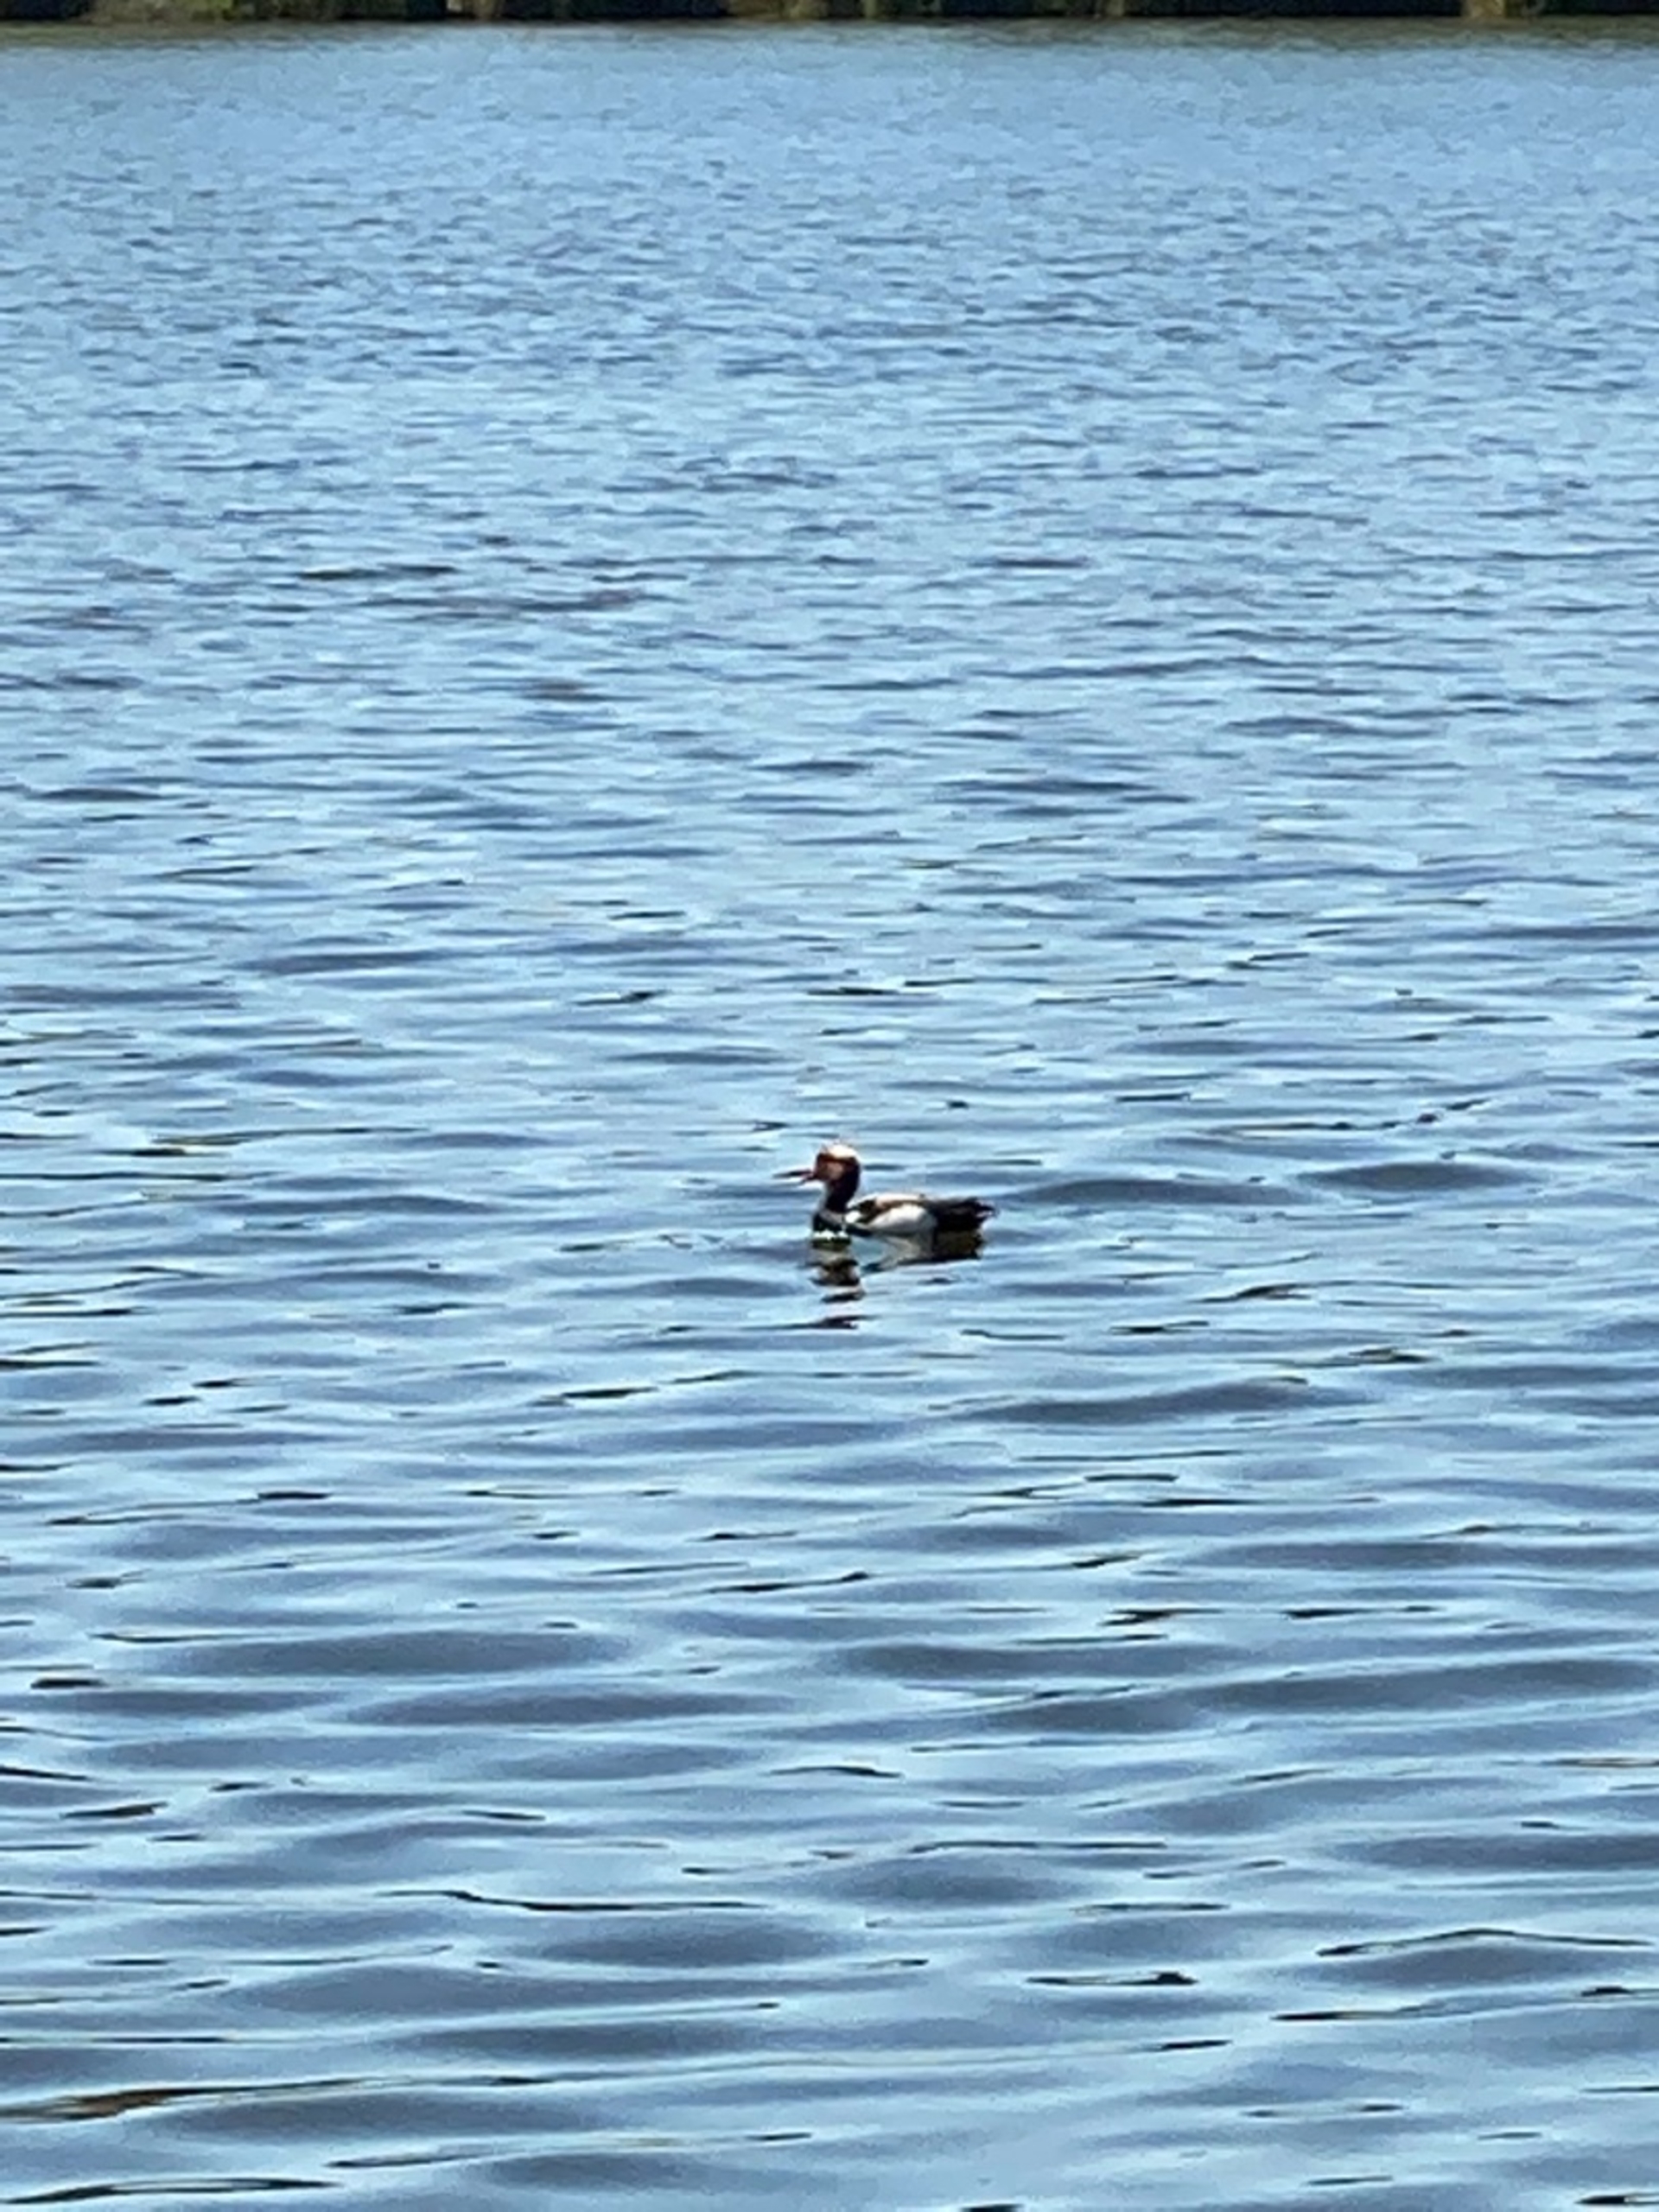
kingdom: Animalia
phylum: Chordata
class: Aves
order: Anseriformes
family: Anatidae
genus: Netta
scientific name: Netta rufina
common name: Rødhovedet and
